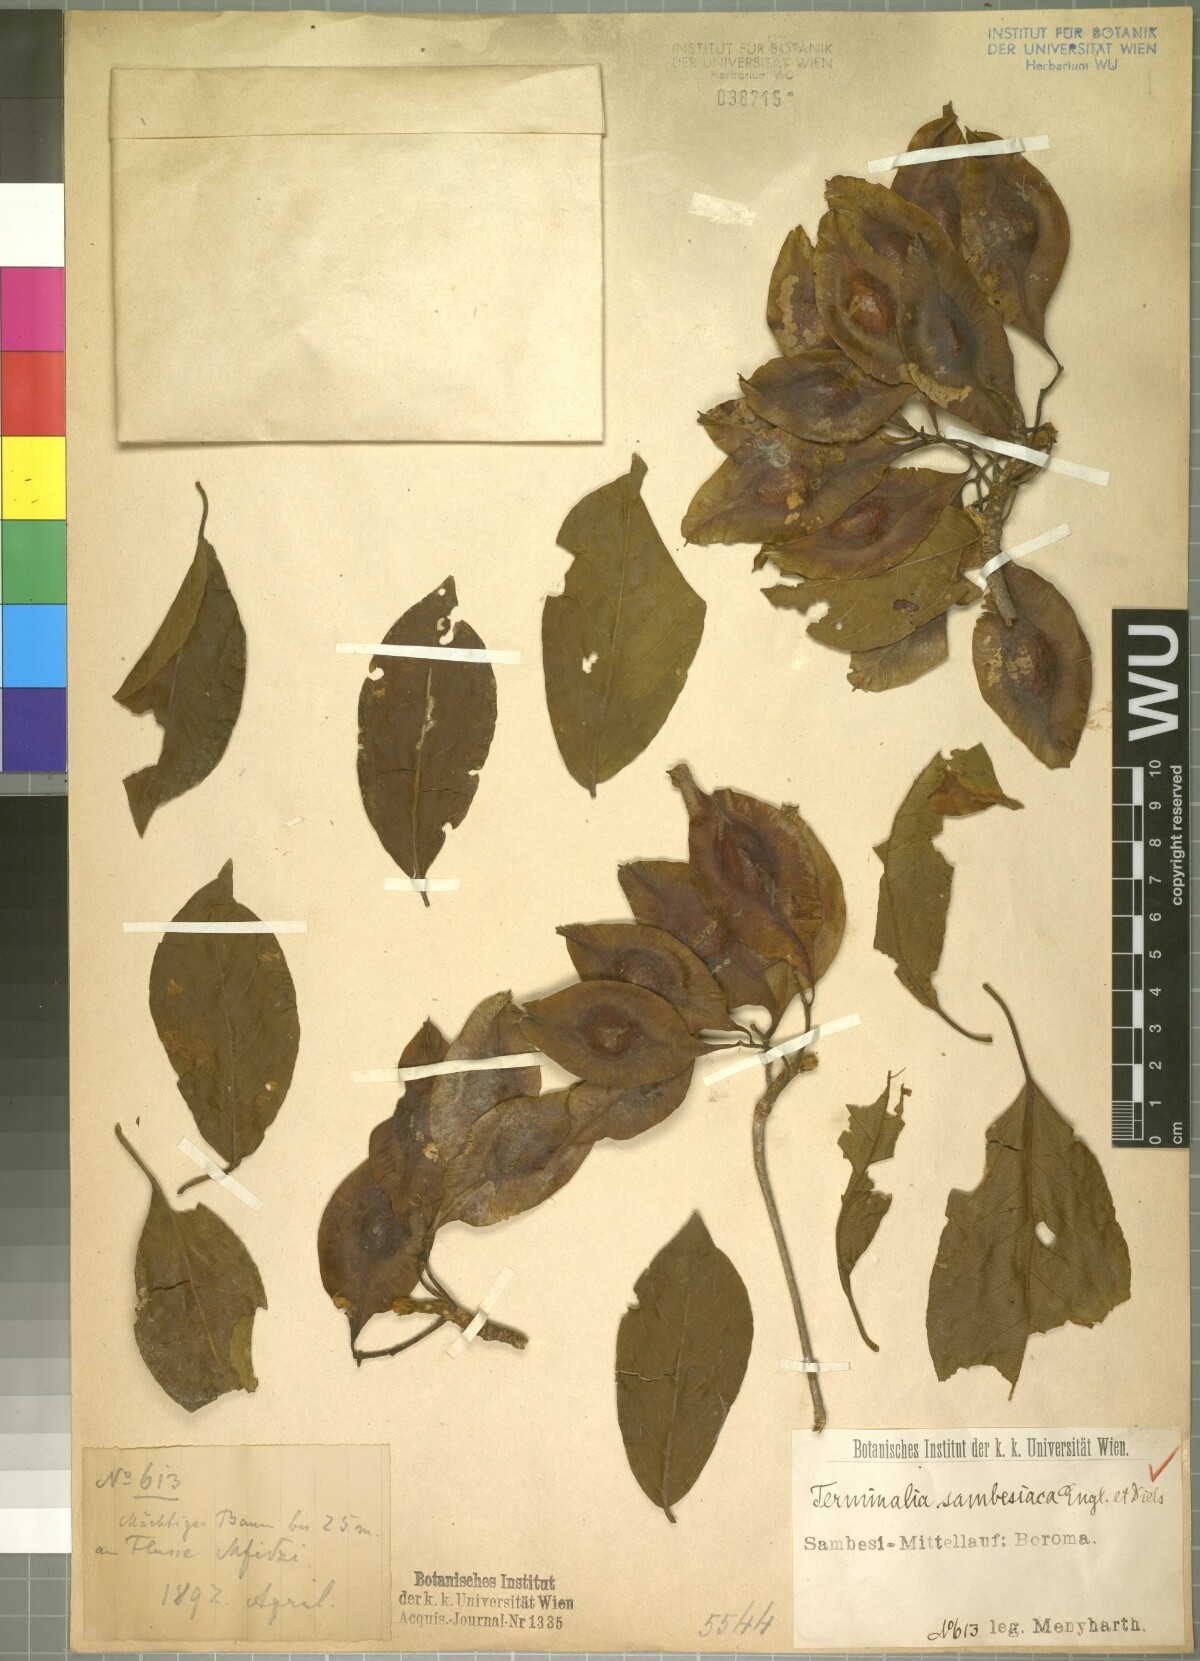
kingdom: Plantae
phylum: Tracheophyta
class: Magnoliopsida
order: Myrtales
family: Combretaceae
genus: Terminalia
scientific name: Terminalia sambesiaca
